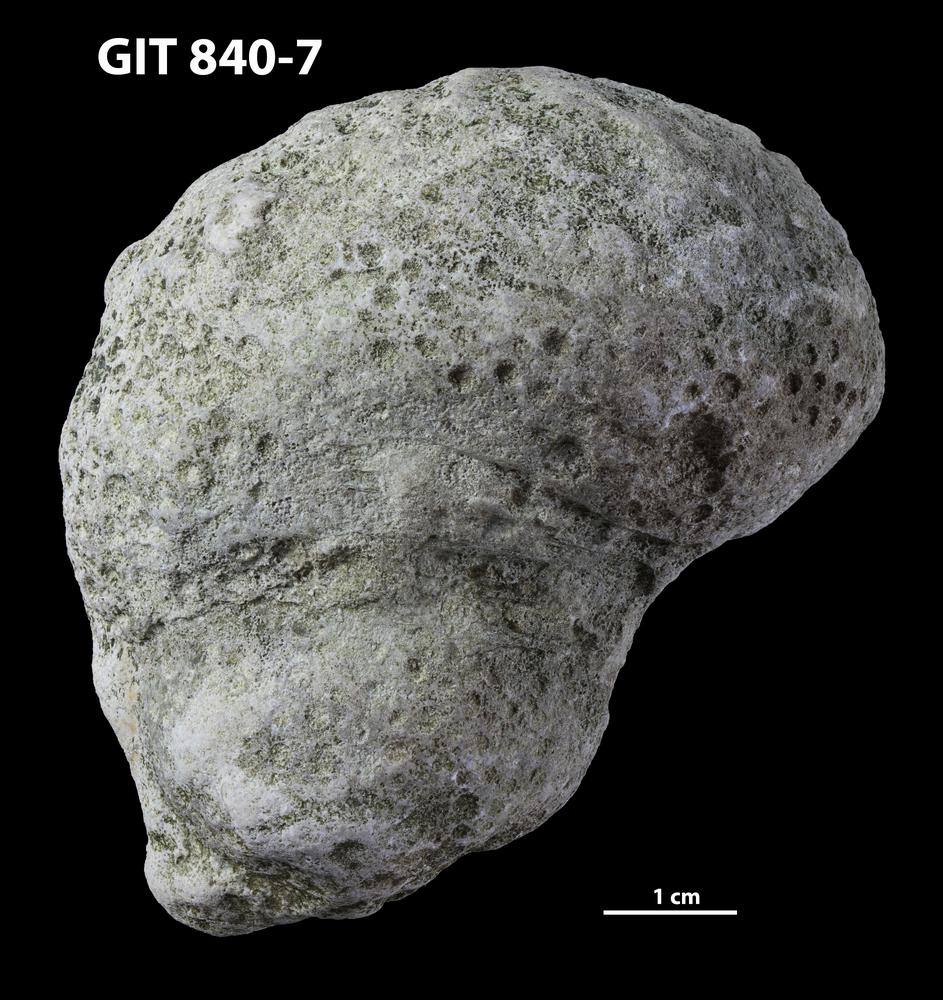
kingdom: Animalia
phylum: Xenacoelomorpha
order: Acoela
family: Proporidae
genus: Propora
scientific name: Propora
